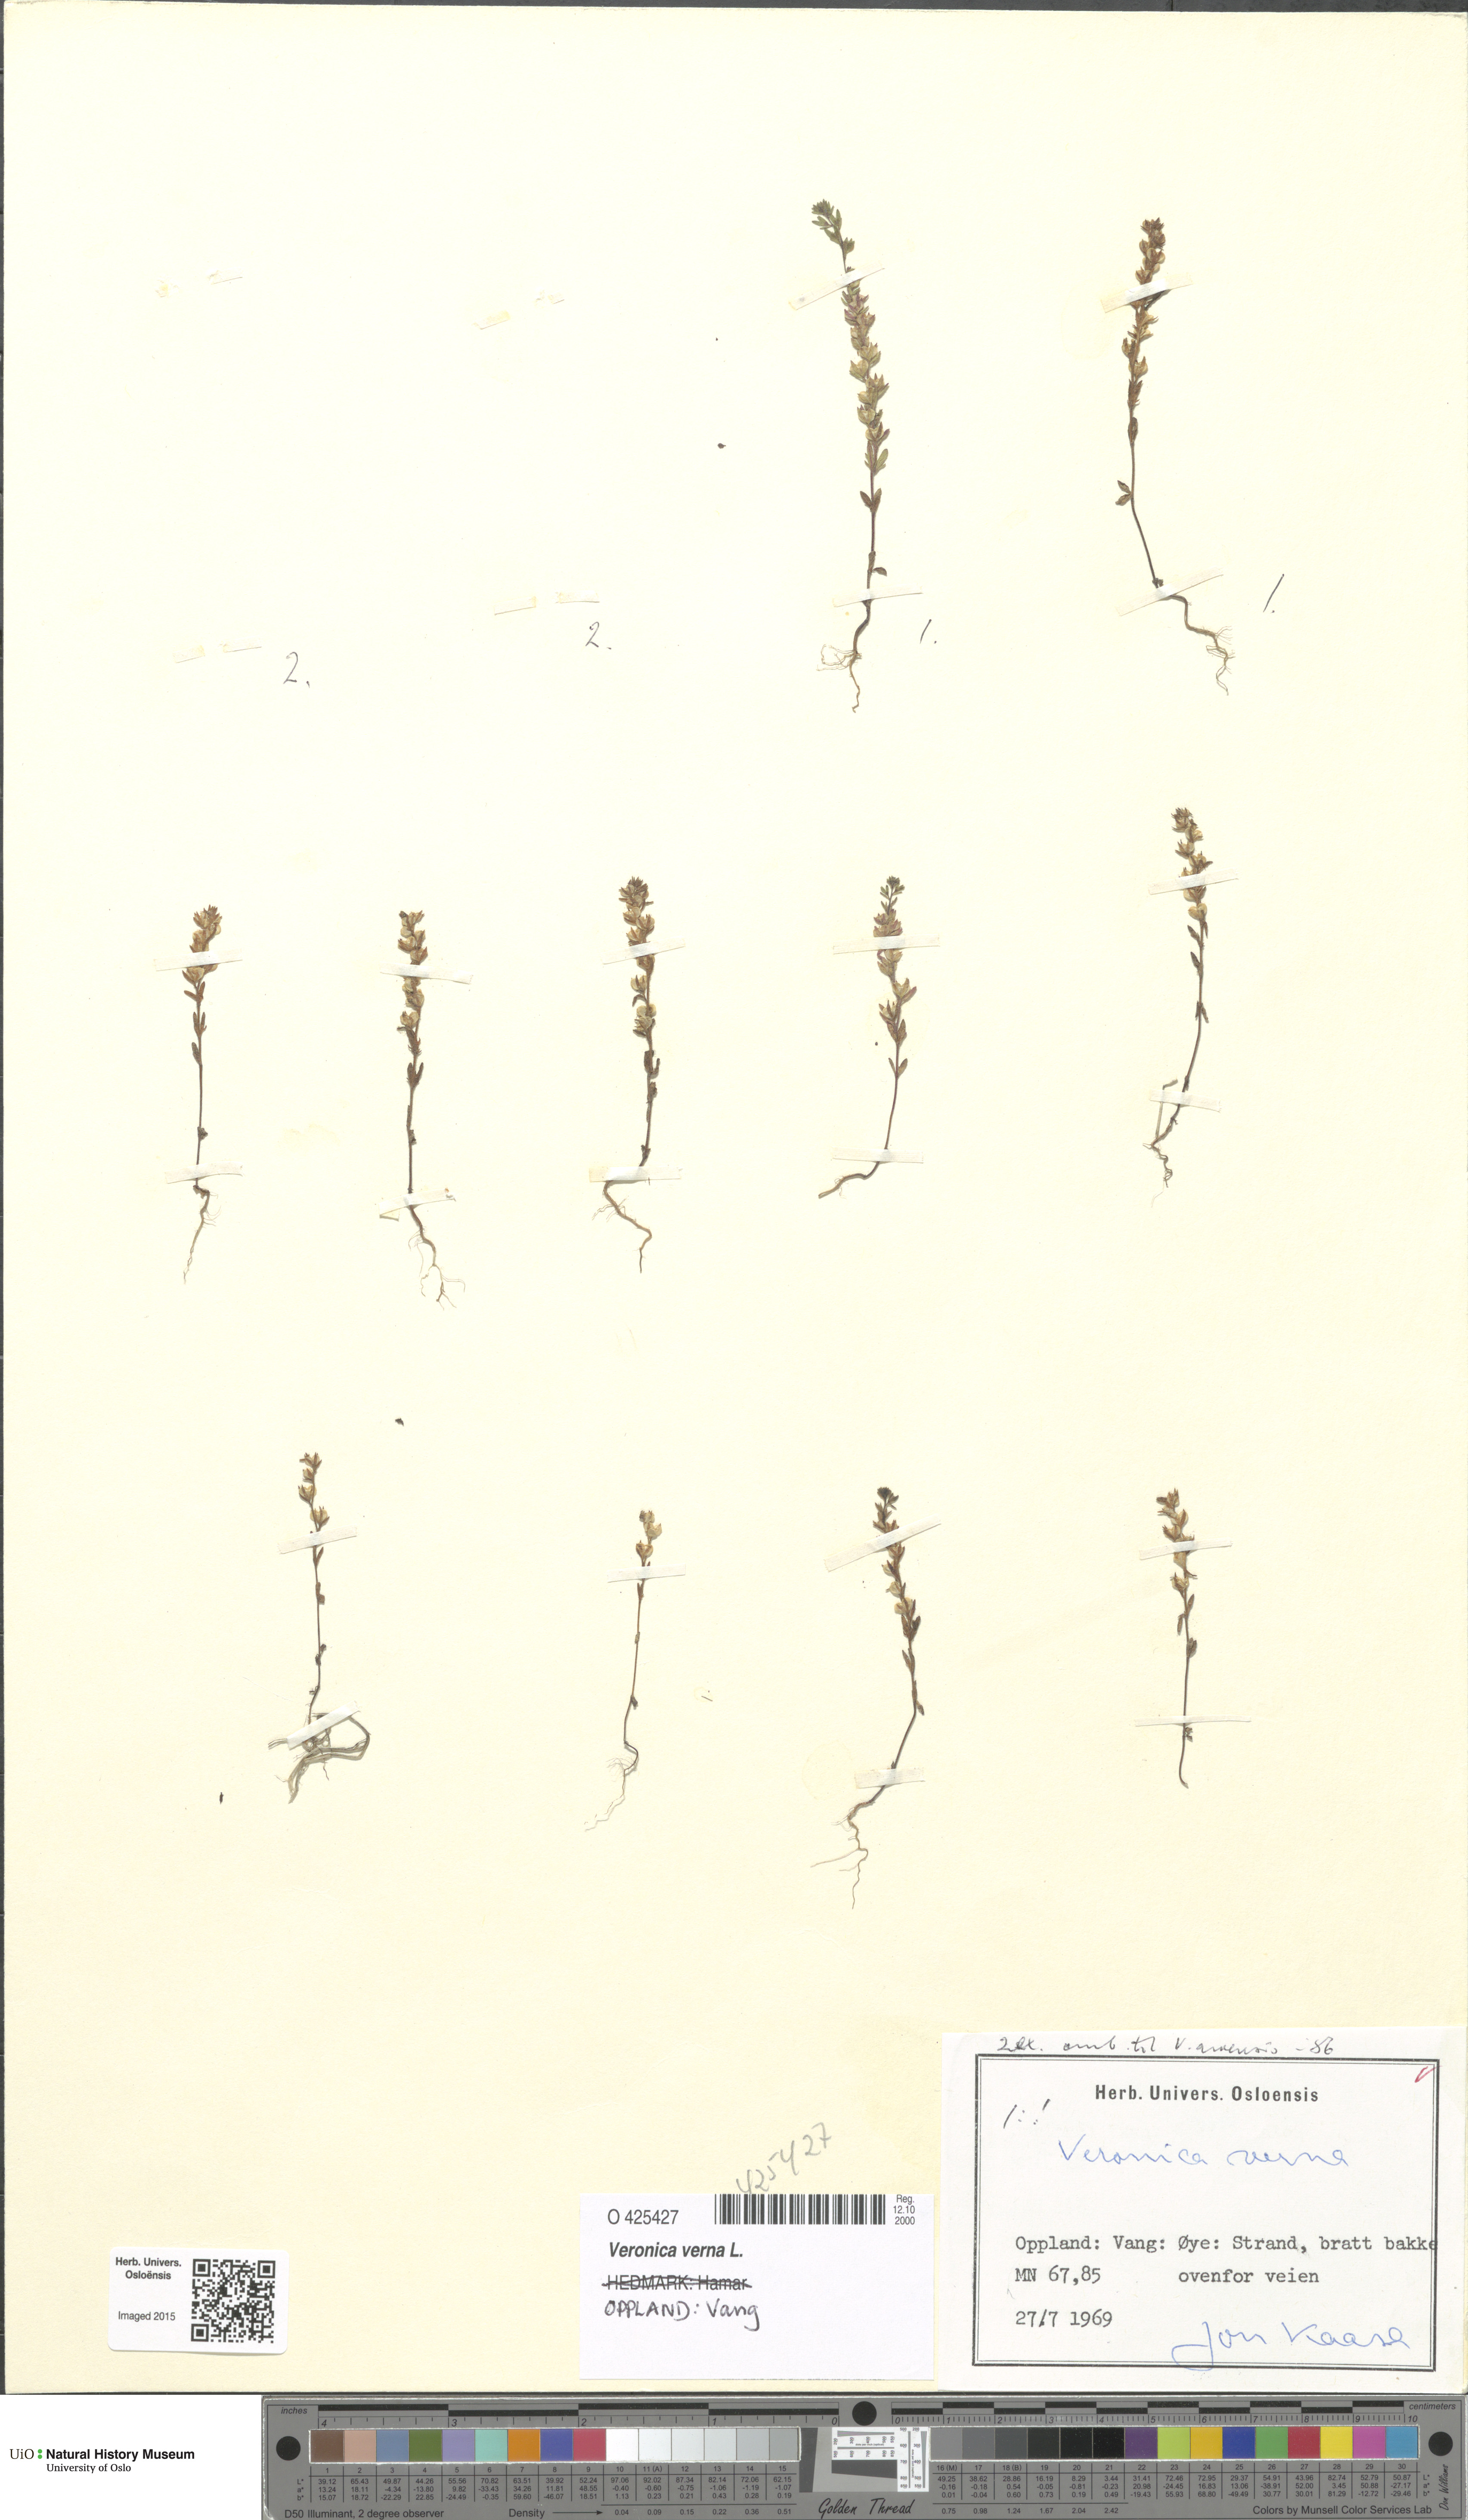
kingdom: Plantae
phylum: Tracheophyta
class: Magnoliopsida
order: Lamiales
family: Plantaginaceae
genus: Veronica
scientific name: Veronica verna
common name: Spring speedwell
